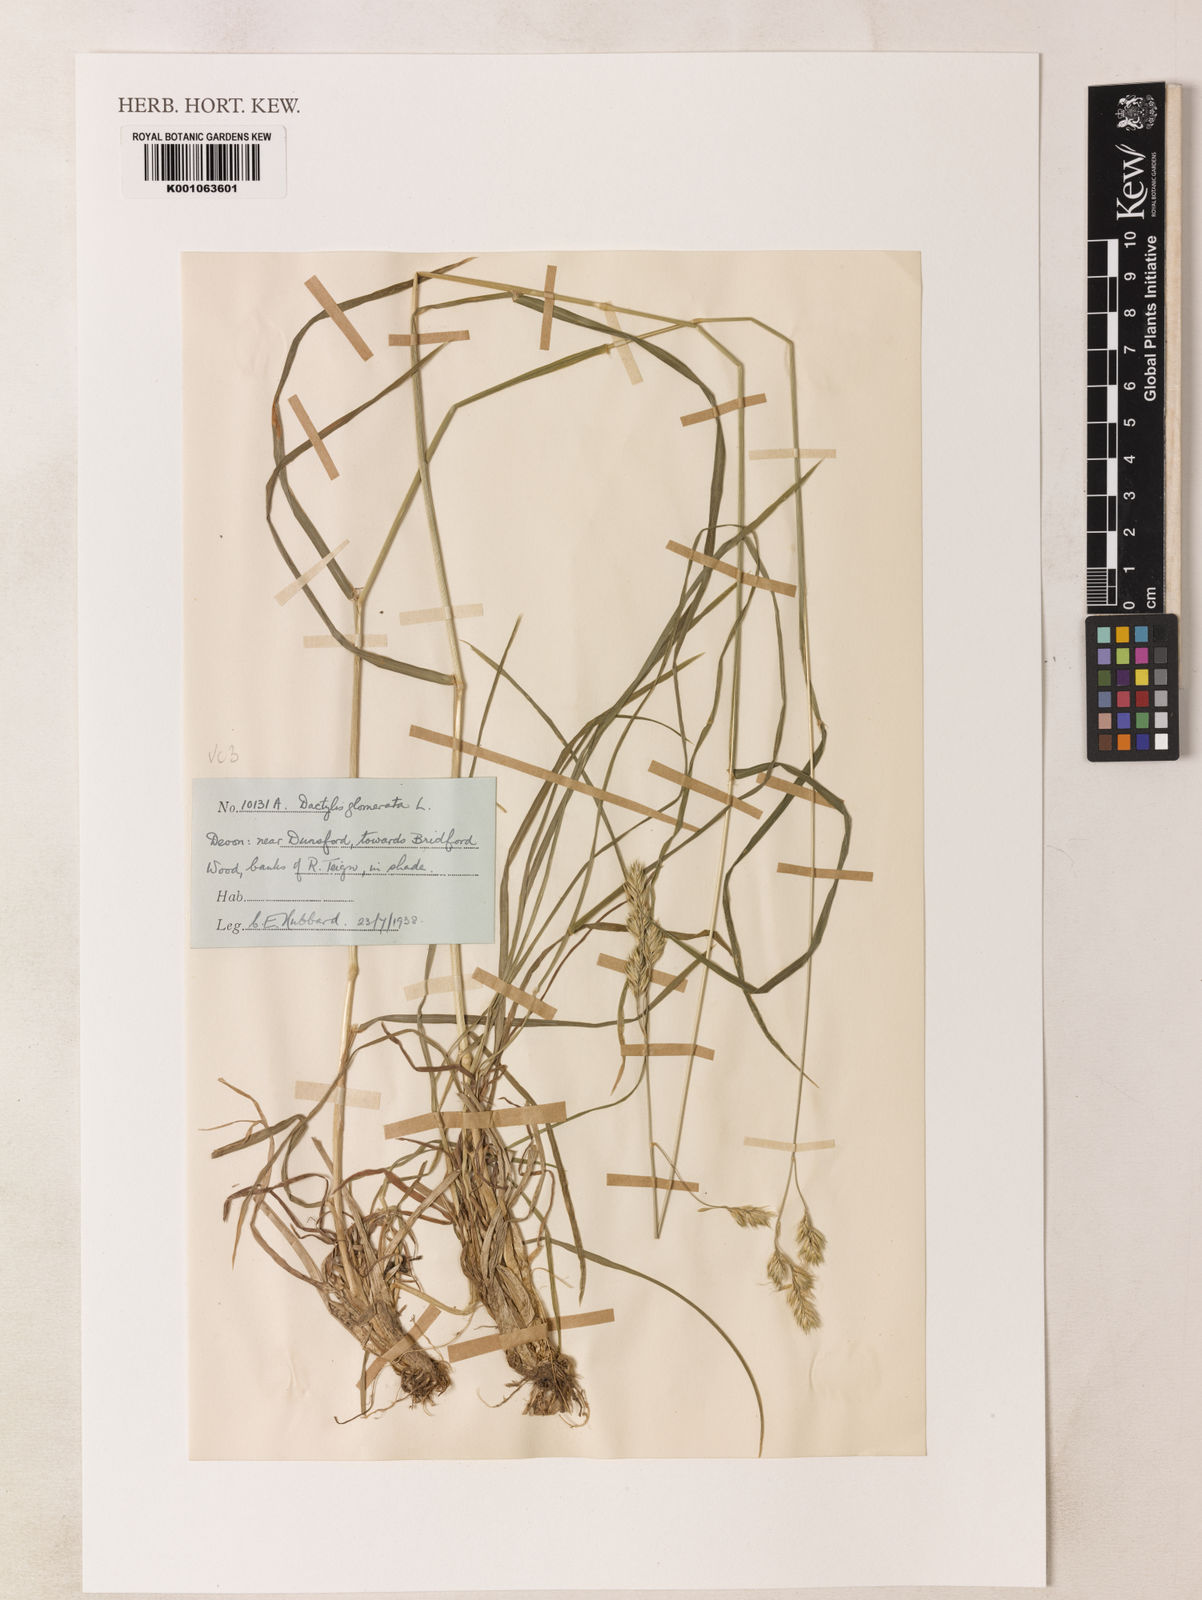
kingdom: Plantae
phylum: Tracheophyta
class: Liliopsida
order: Poales
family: Poaceae
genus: Dactylis
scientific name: Dactylis glomerata
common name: Orchardgrass
